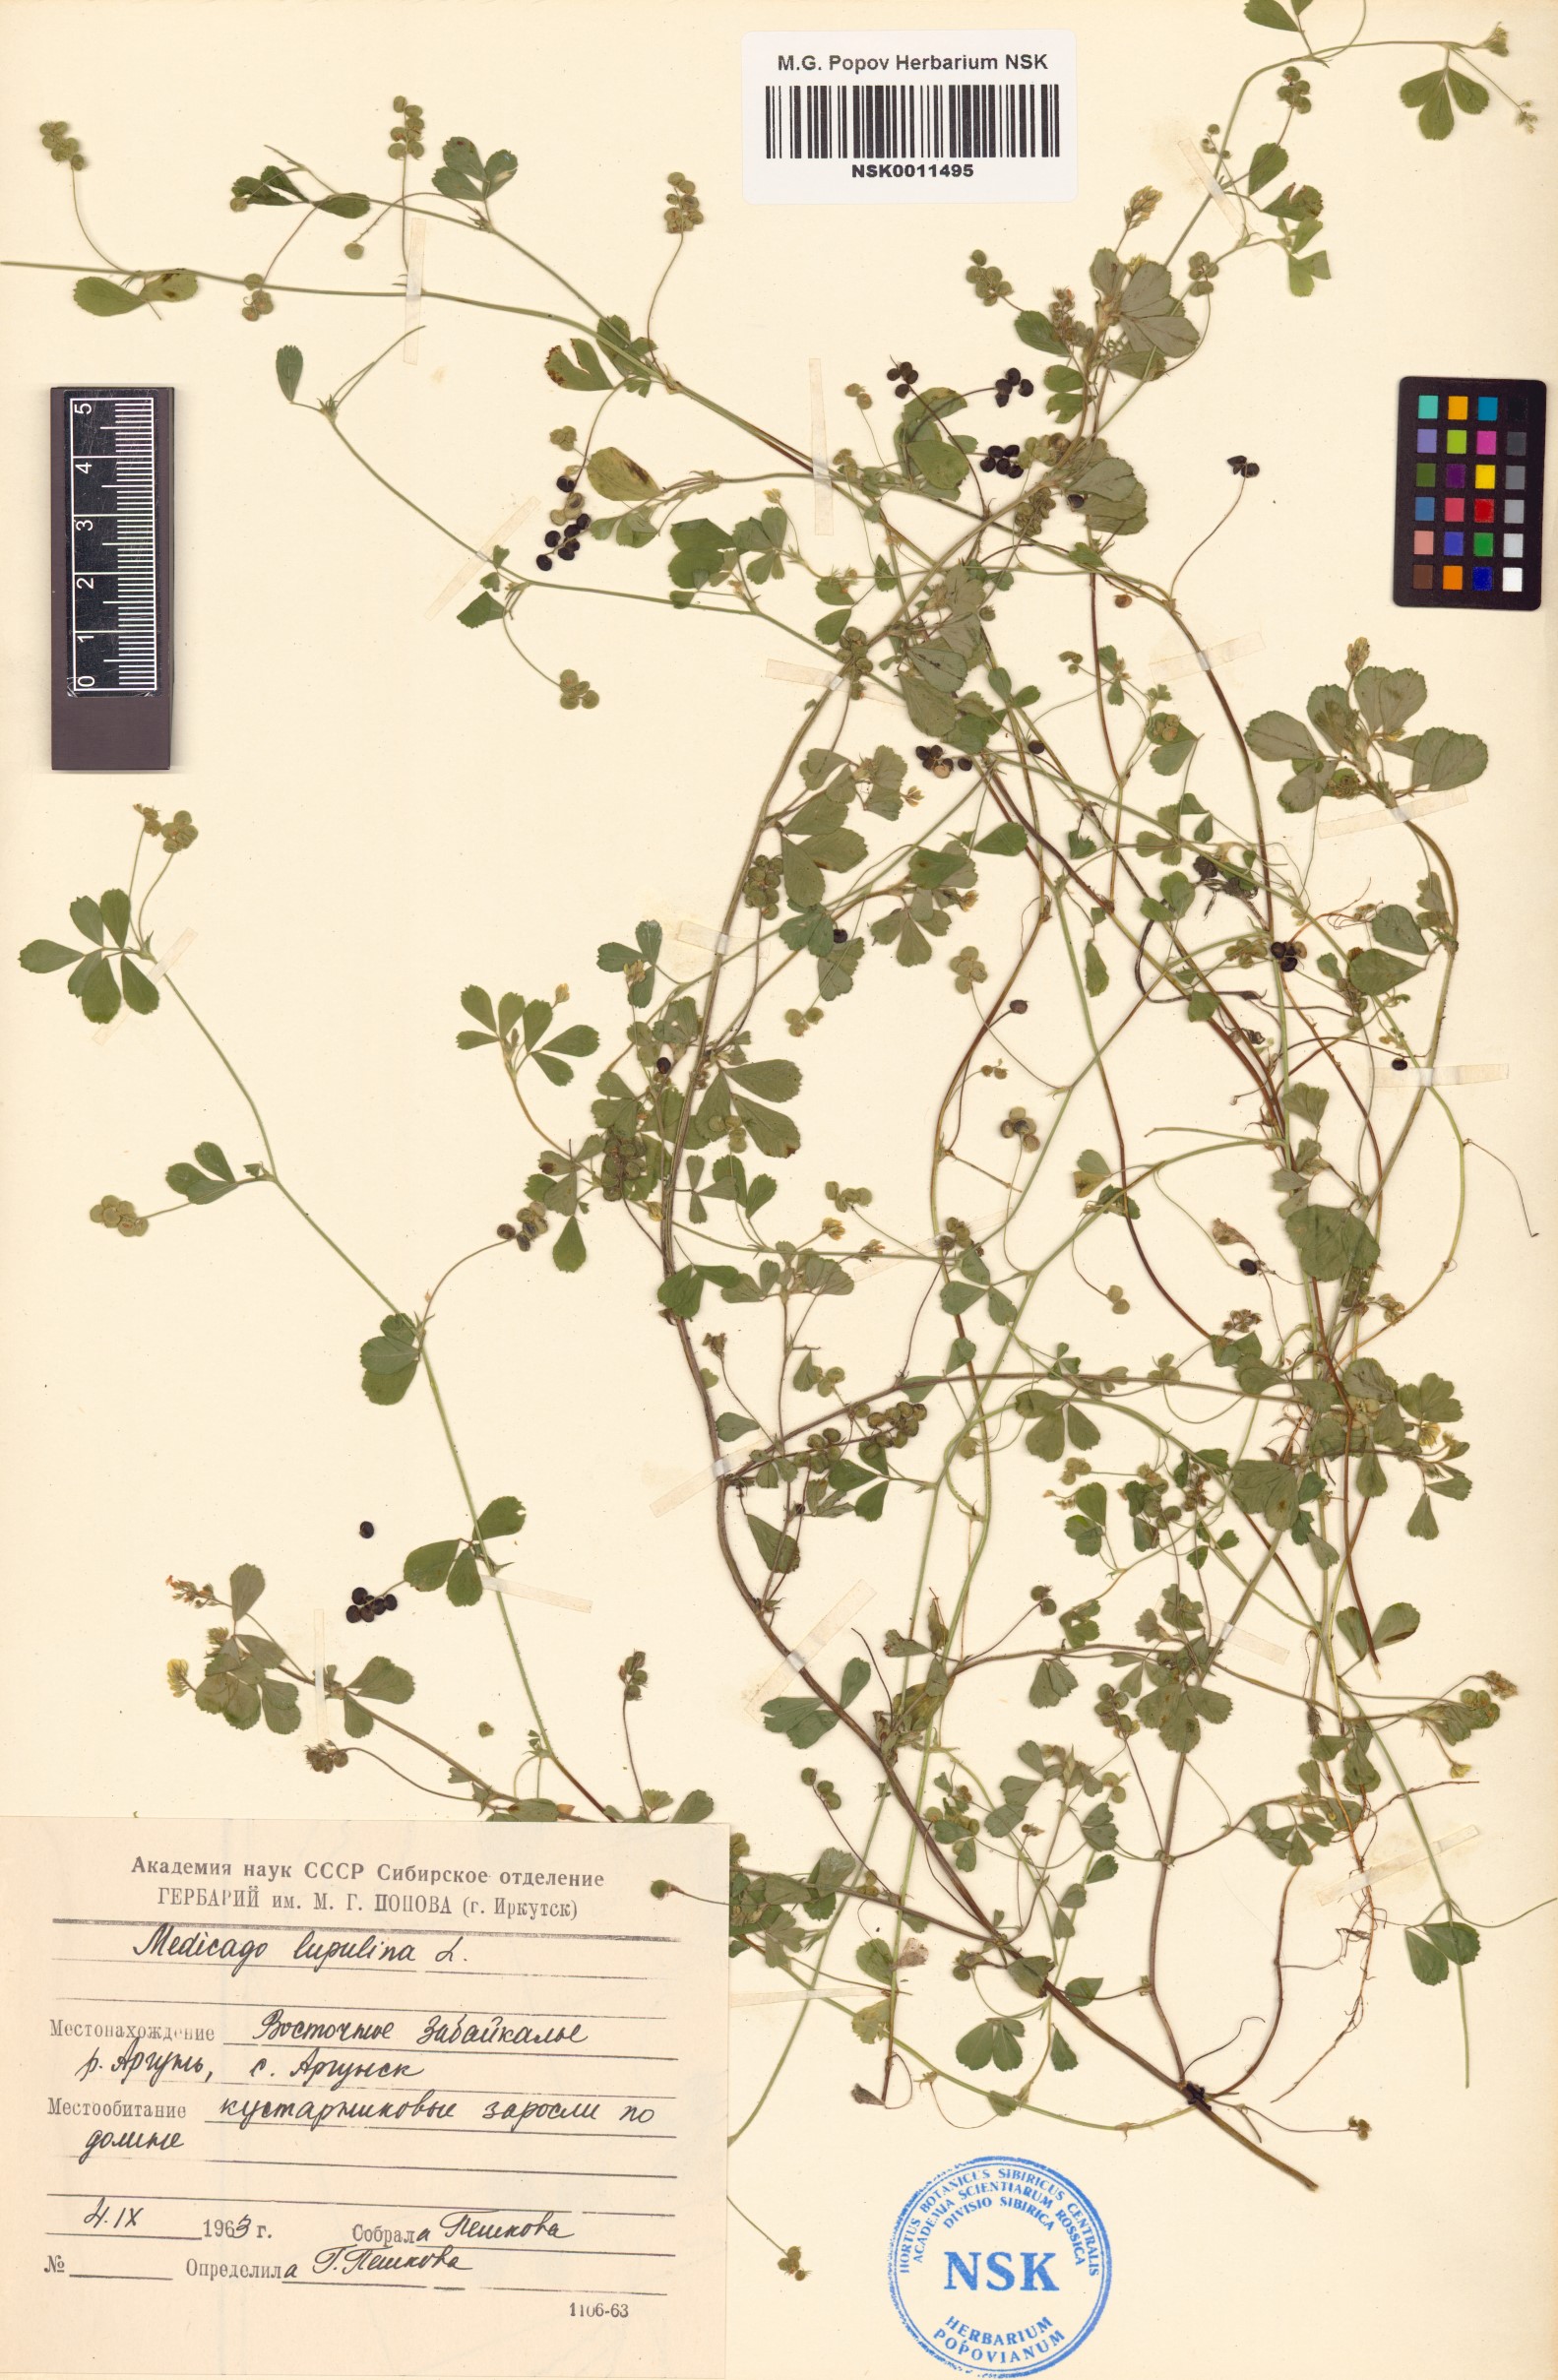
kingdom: Plantae
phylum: Tracheophyta
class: Magnoliopsida
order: Fabales
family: Fabaceae
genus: Medicago
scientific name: Medicago lupulina
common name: Black medick
